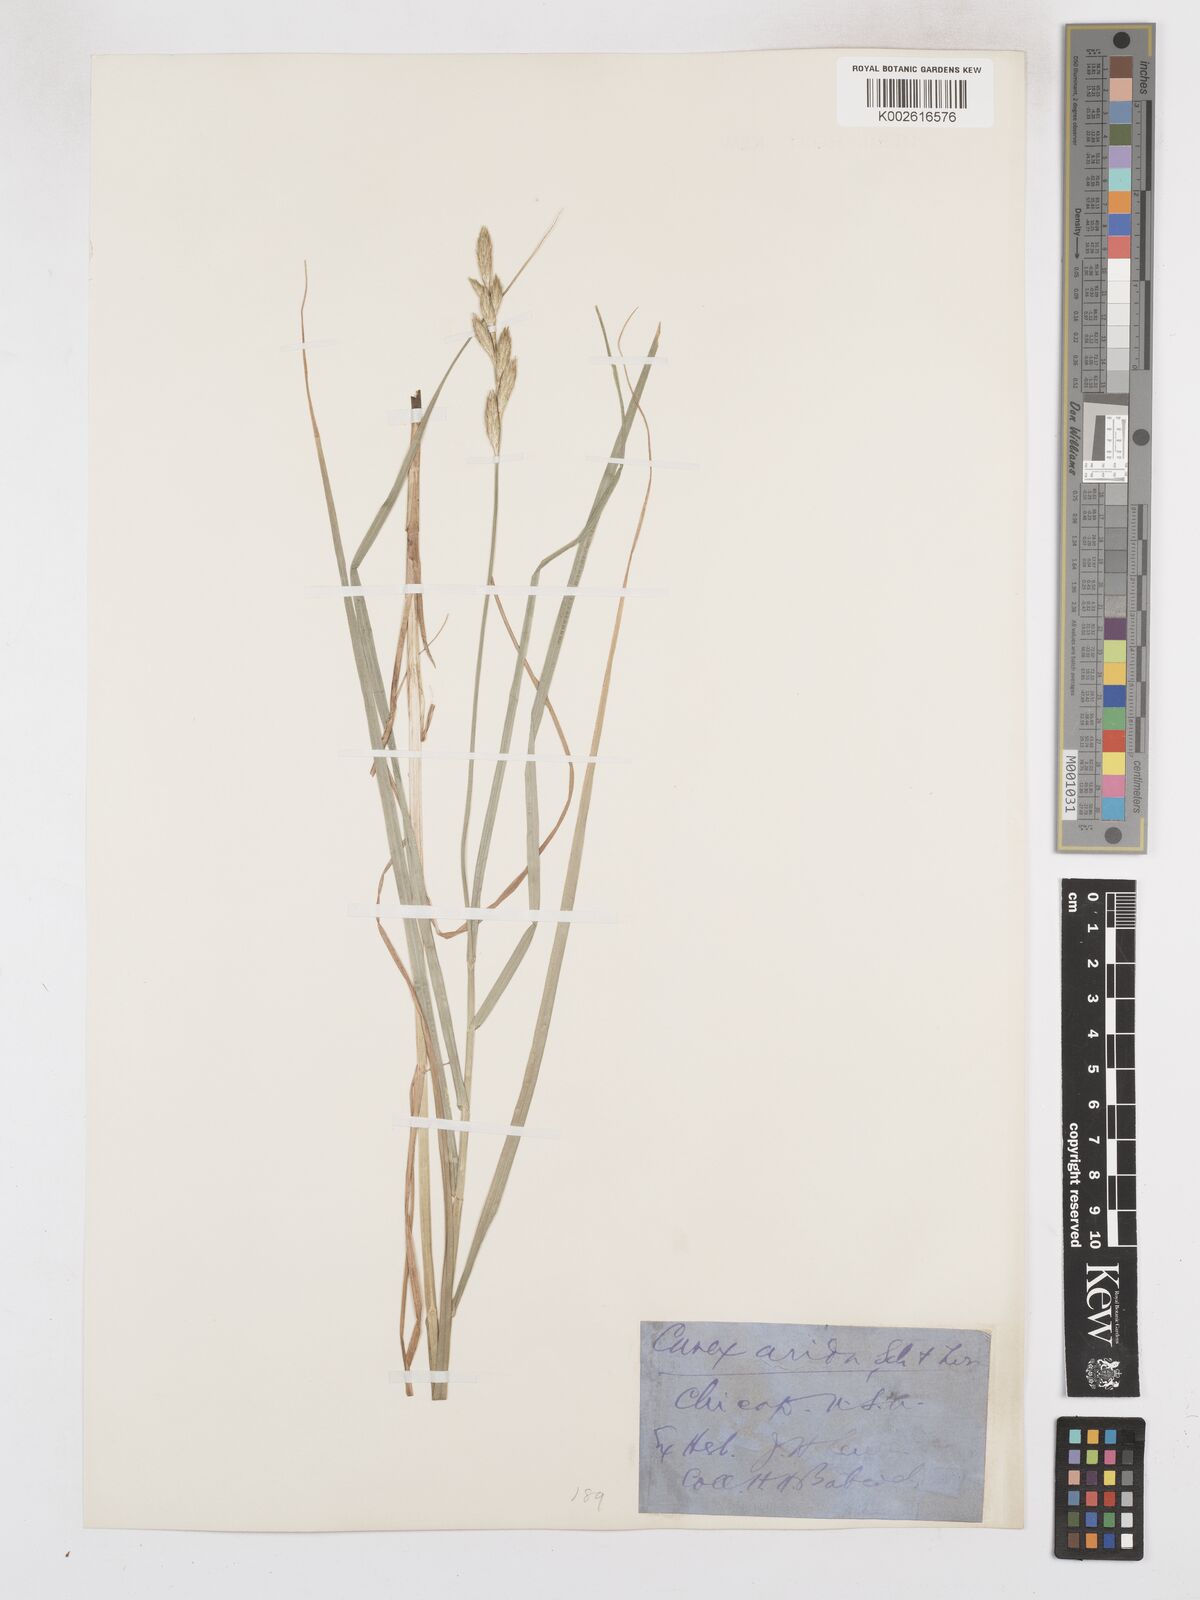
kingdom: Plantae
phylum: Tracheophyta
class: Liliopsida
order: Poales
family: Cyperaceae
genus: Carex
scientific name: Carex muskingumensis
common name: Muskingum sedge
